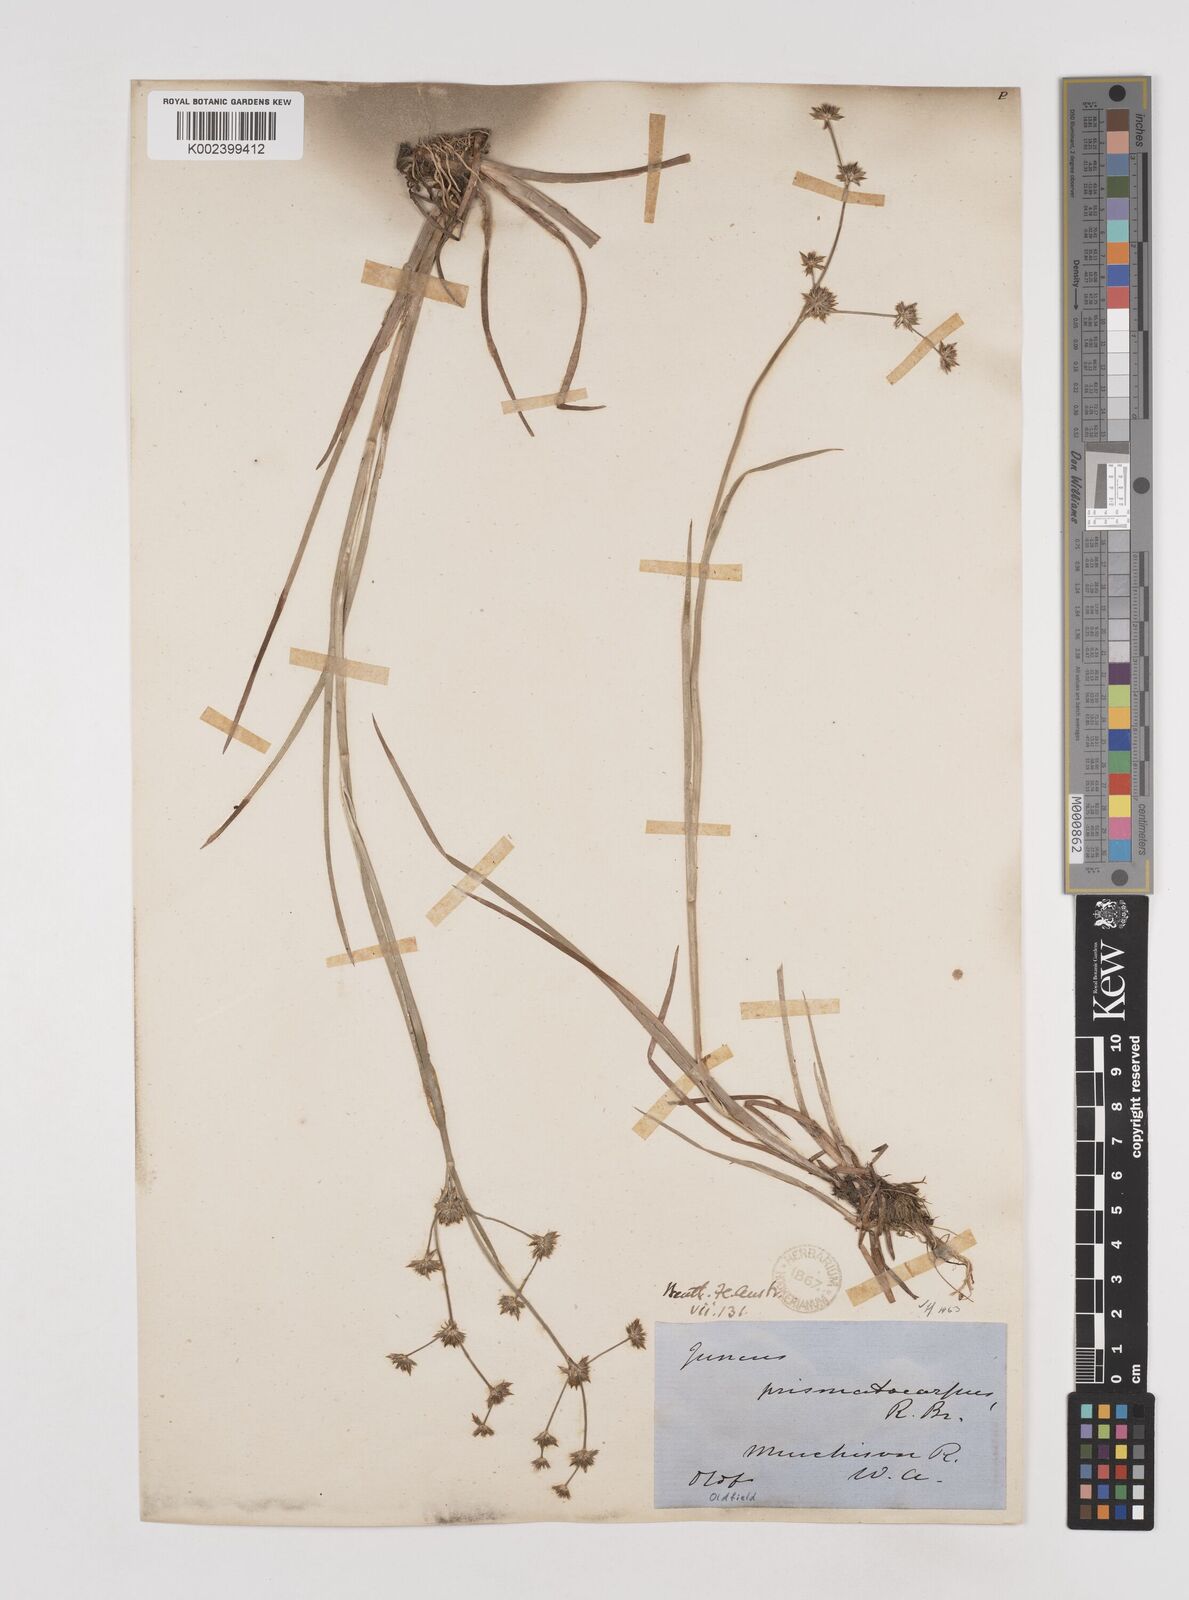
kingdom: Plantae
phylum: Tracheophyta
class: Liliopsida
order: Poales
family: Juncaceae
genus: Juncus
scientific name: Juncus prismatocarpus
